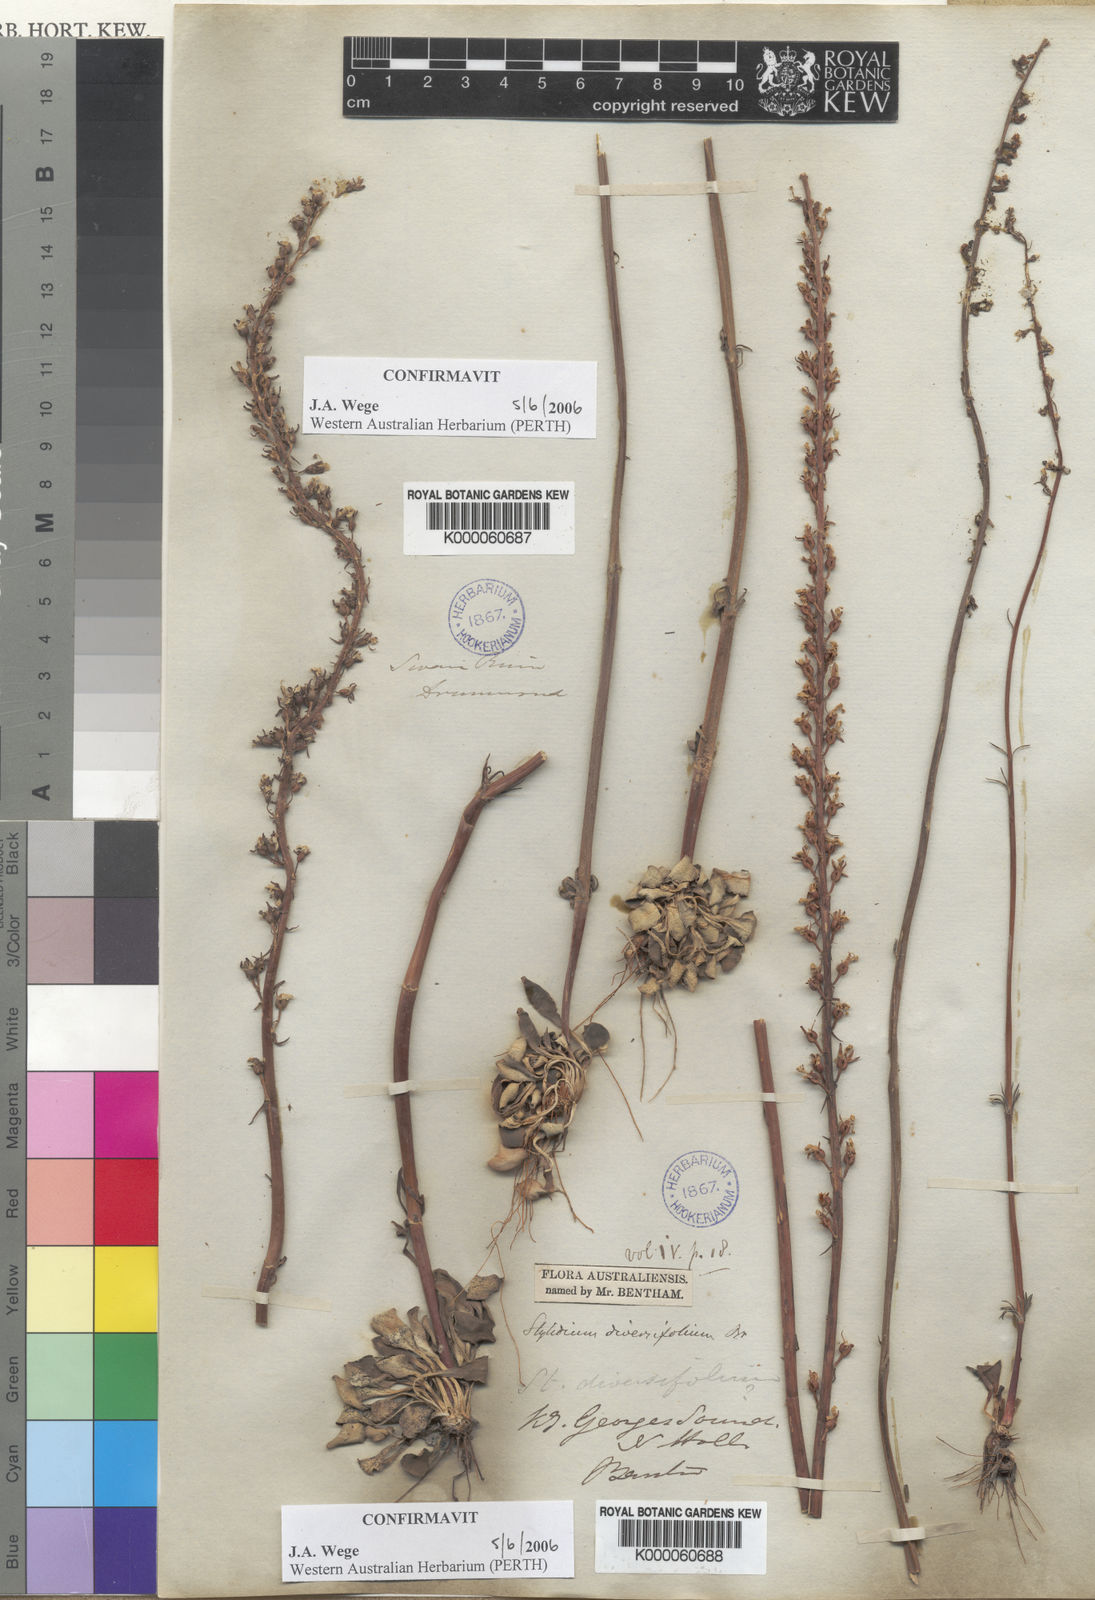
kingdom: Plantae
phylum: Tracheophyta
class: Magnoliopsida
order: Asterales
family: Stylidiaceae
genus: Stylidium
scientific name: Stylidium diversifolium
